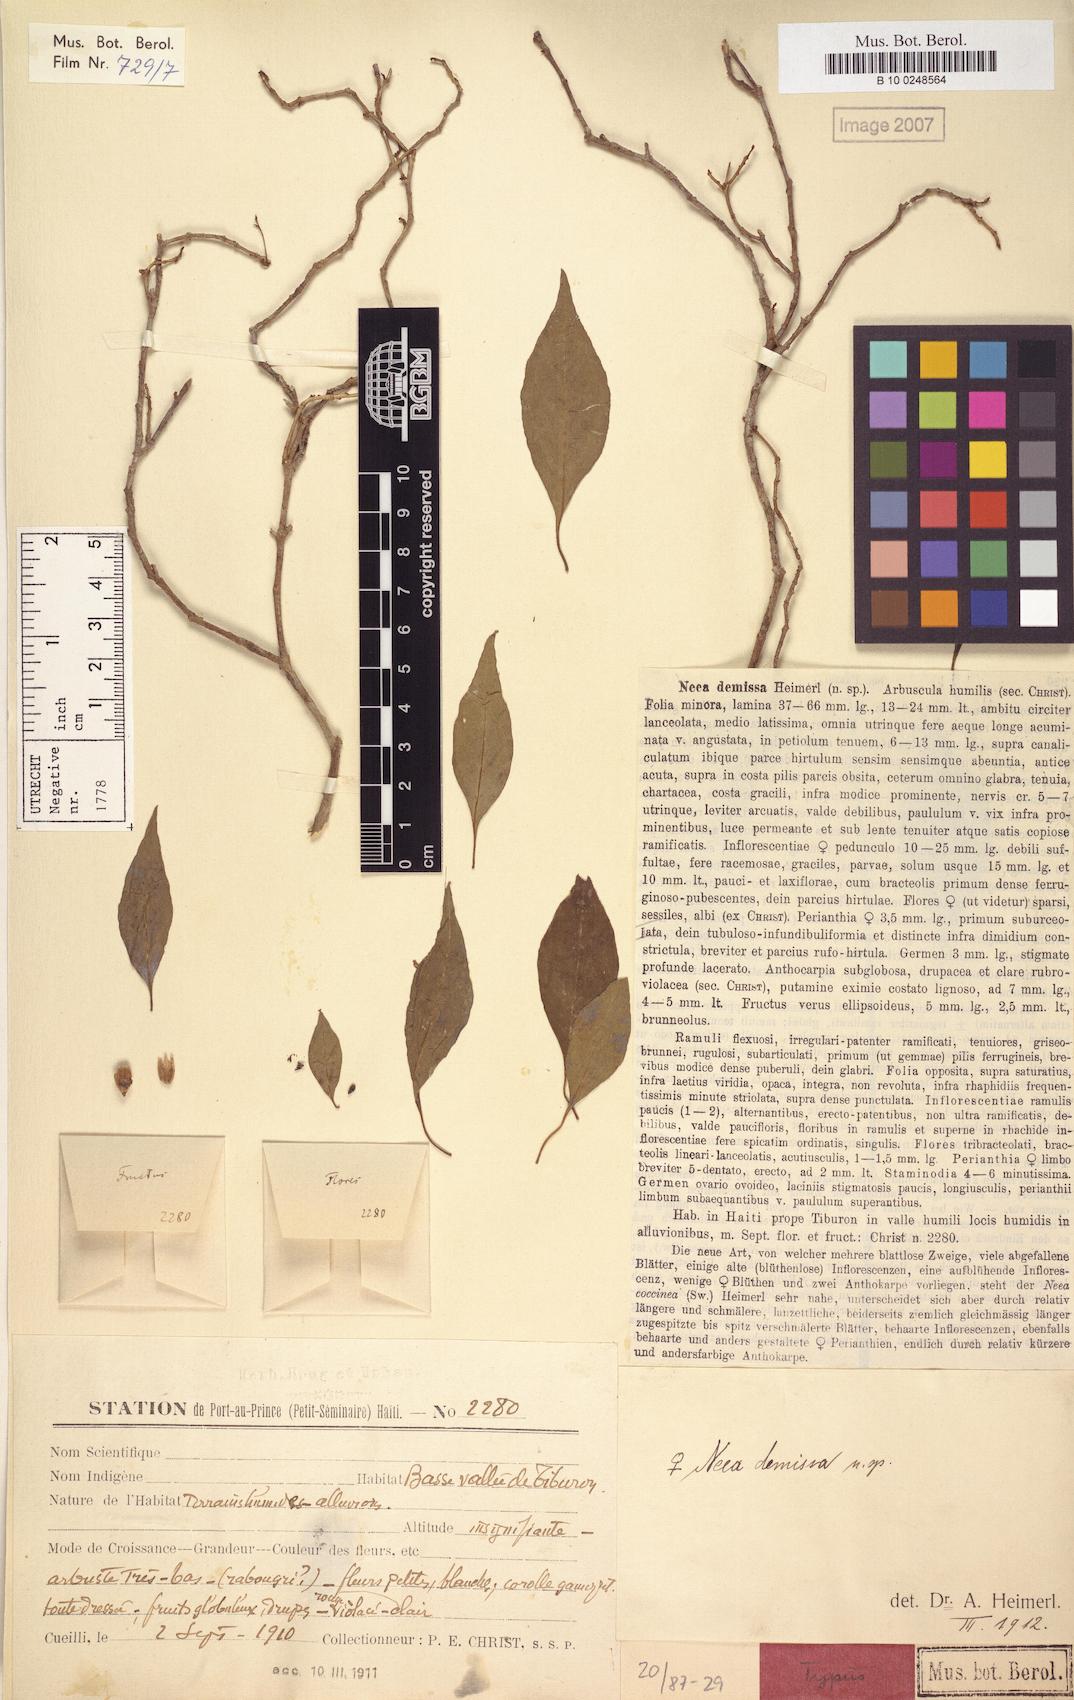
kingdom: Plantae
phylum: Tracheophyta
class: Magnoliopsida
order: Caryophyllales
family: Nyctaginaceae
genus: Neea
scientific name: Neea demissa
